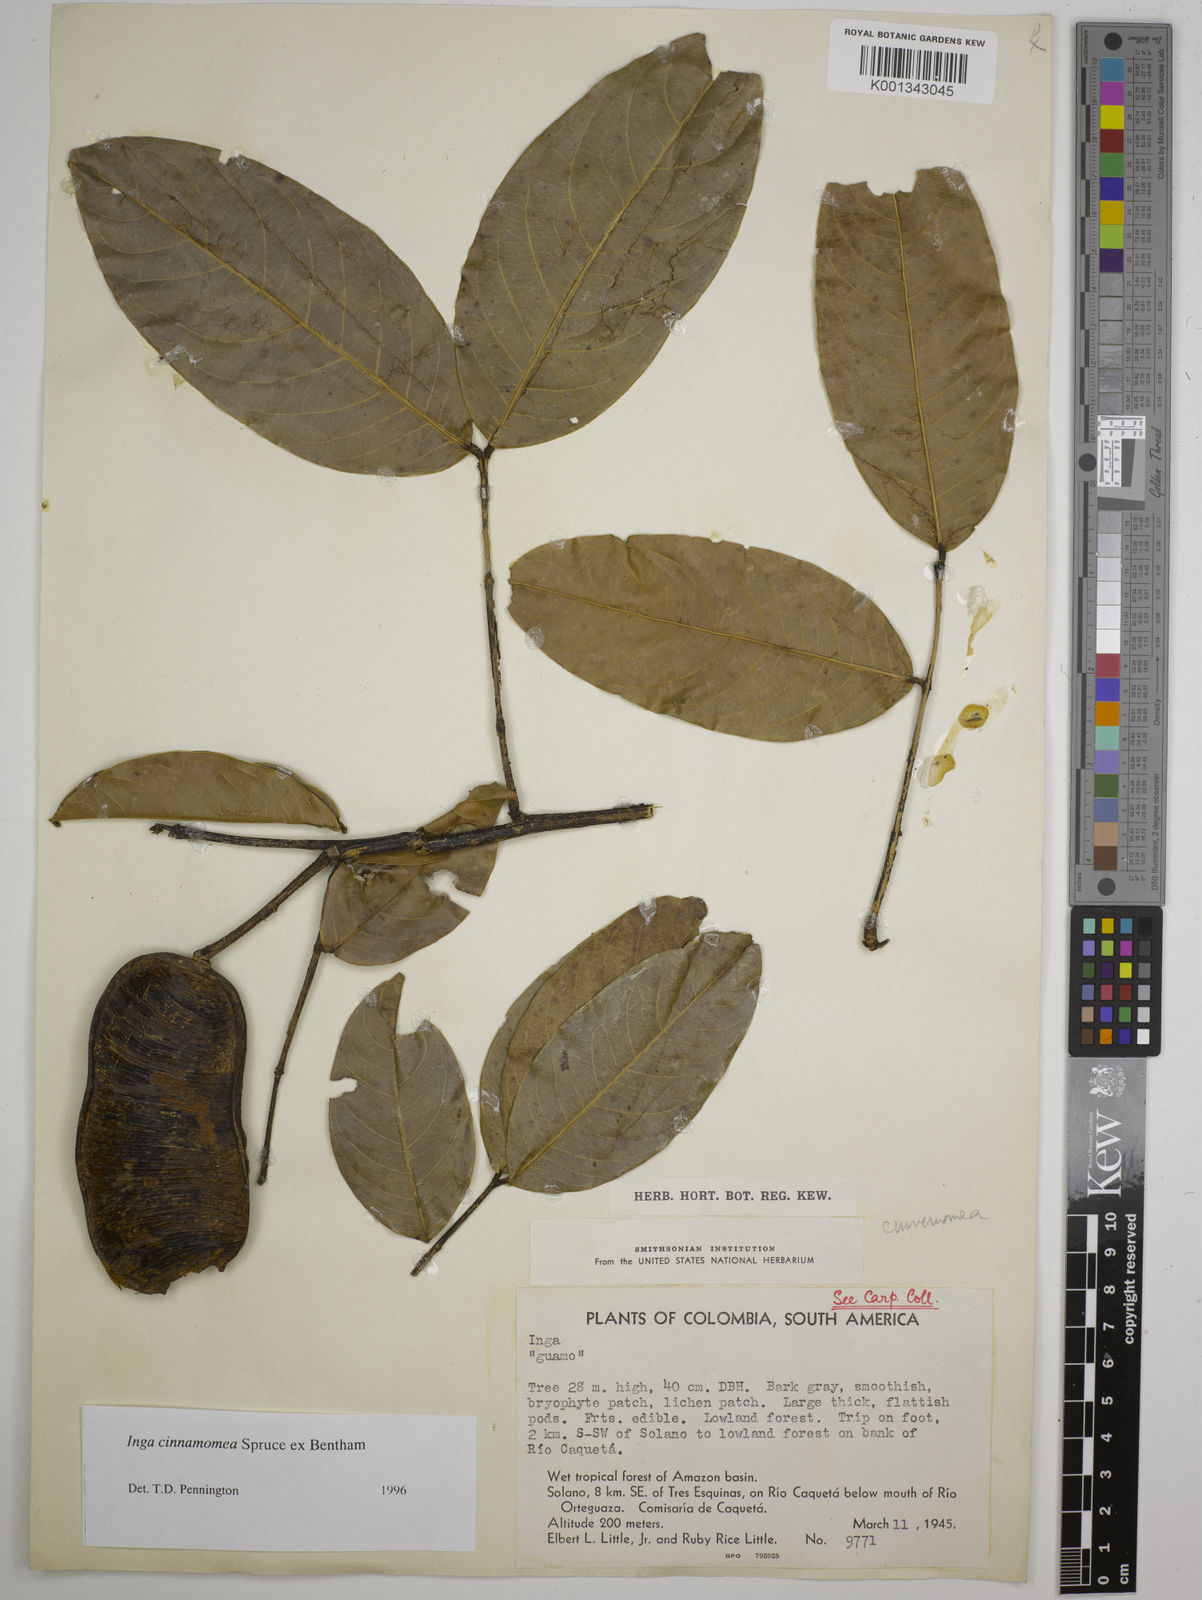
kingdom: Plantae
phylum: Tracheophyta
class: Magnoliopsida
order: Fabales
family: Fabaceae
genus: Inga
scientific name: Inga cinnamomea
